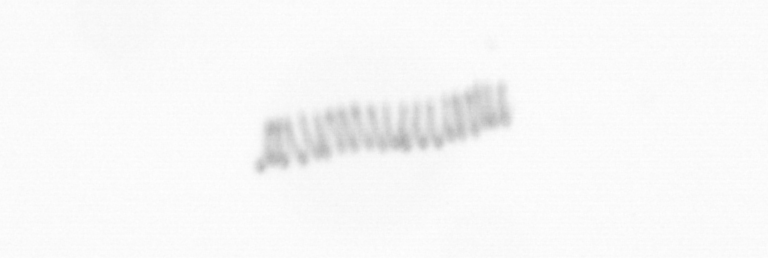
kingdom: Chromista
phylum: Ochrophyta
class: Bacillariophyceae
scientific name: Bacillariophyceae
